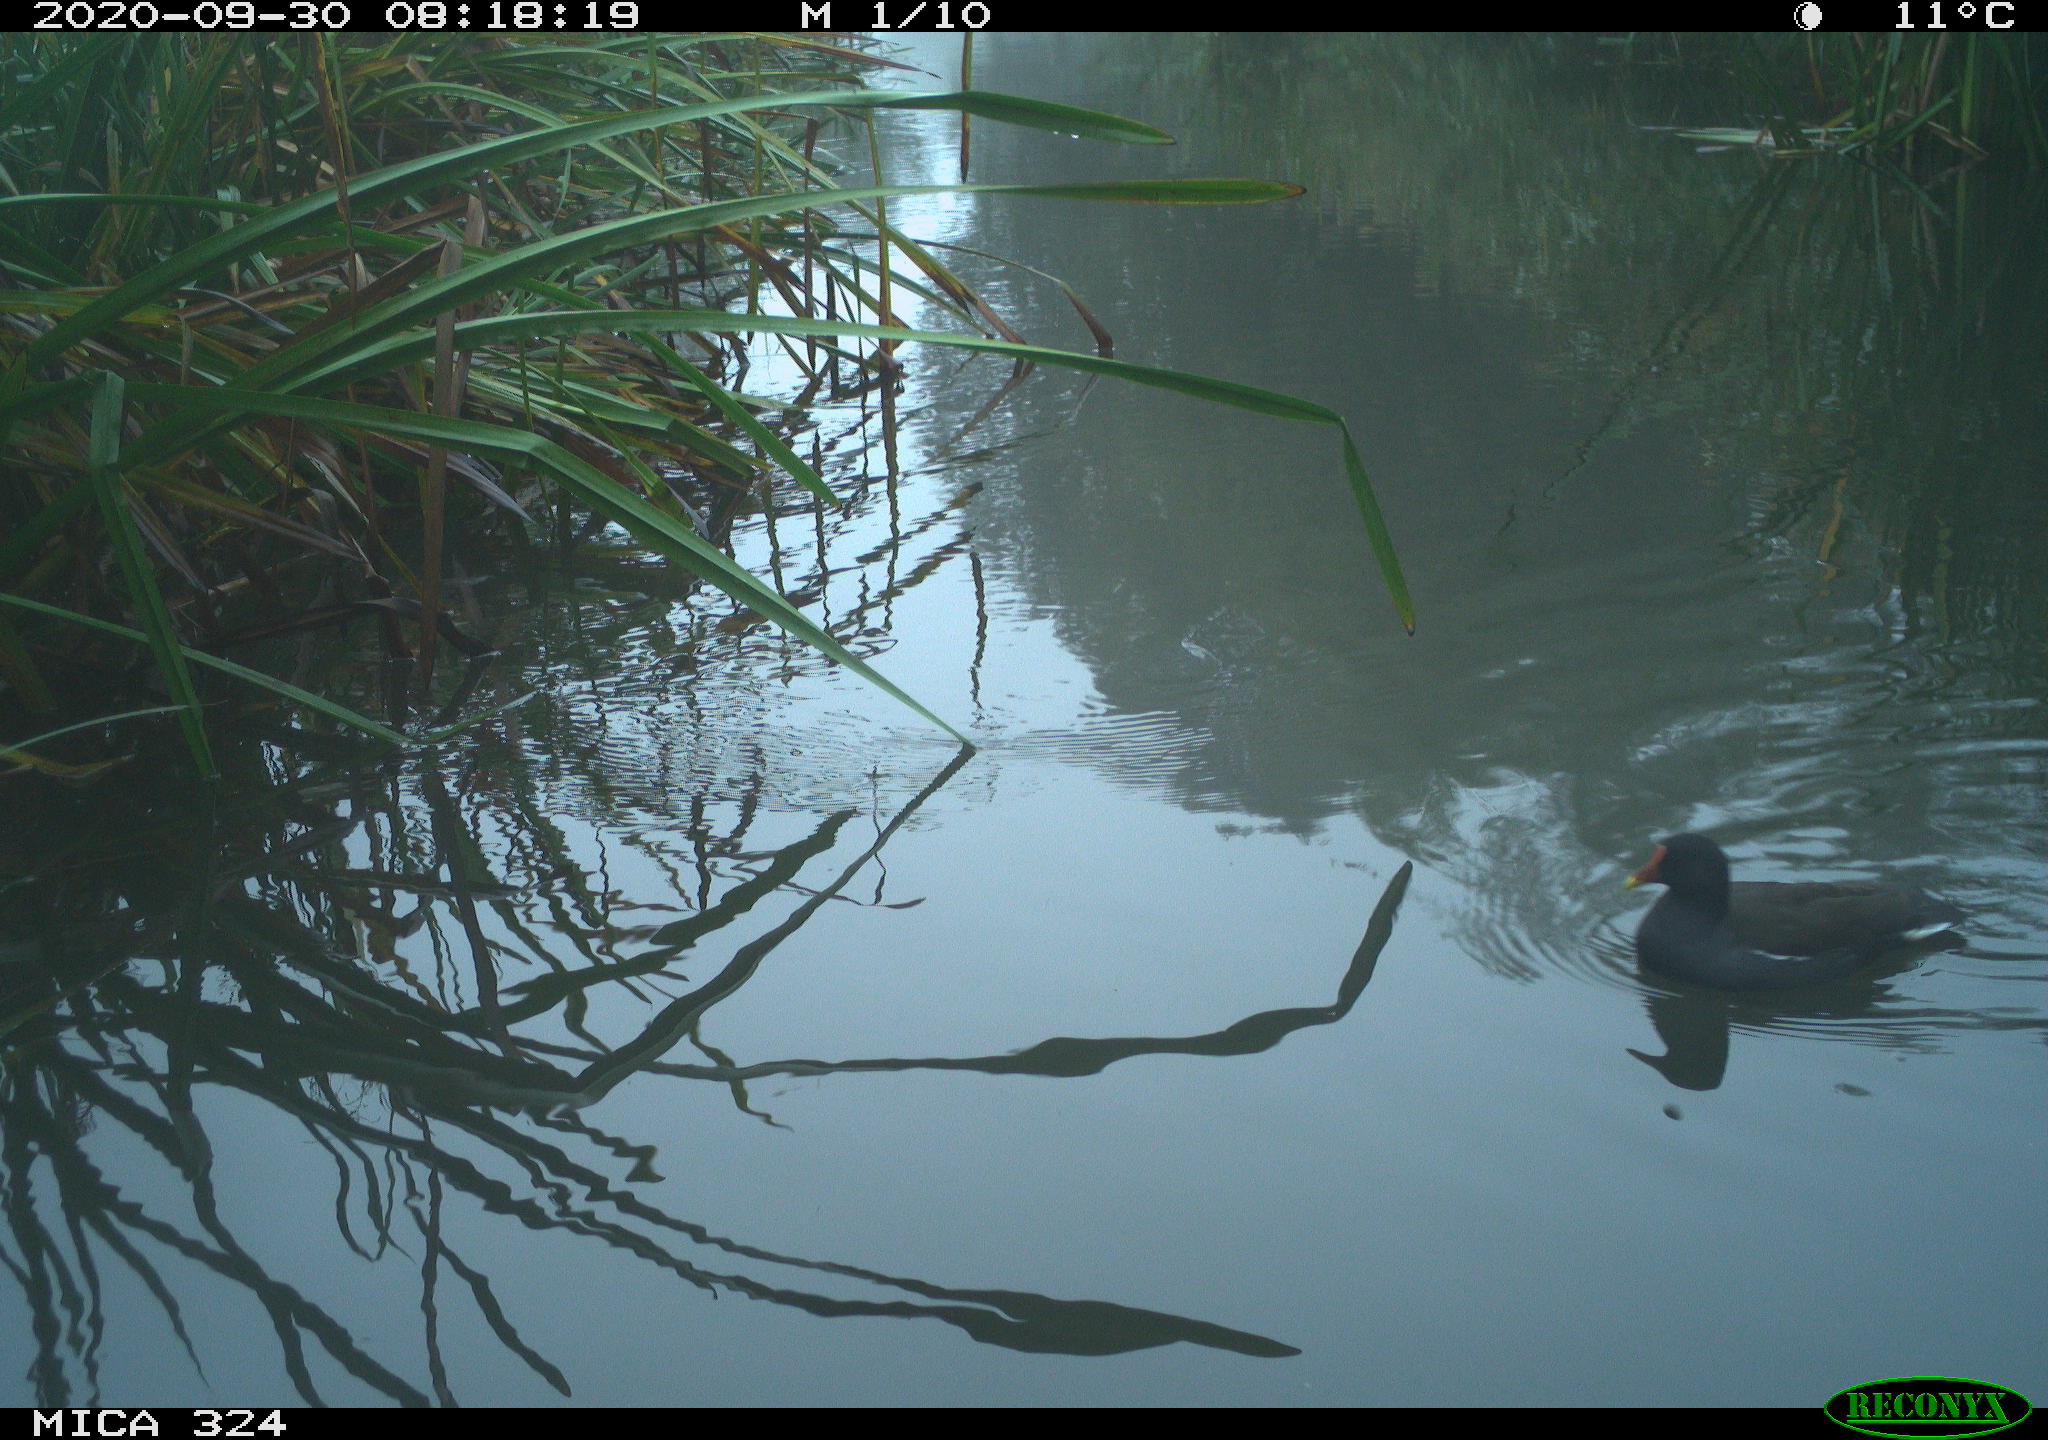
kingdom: Animalia
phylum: Chordata
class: Aves
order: Gruiformes
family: Rallidae
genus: Gallinula
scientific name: Gallinula chloropus
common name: Common moorhen
